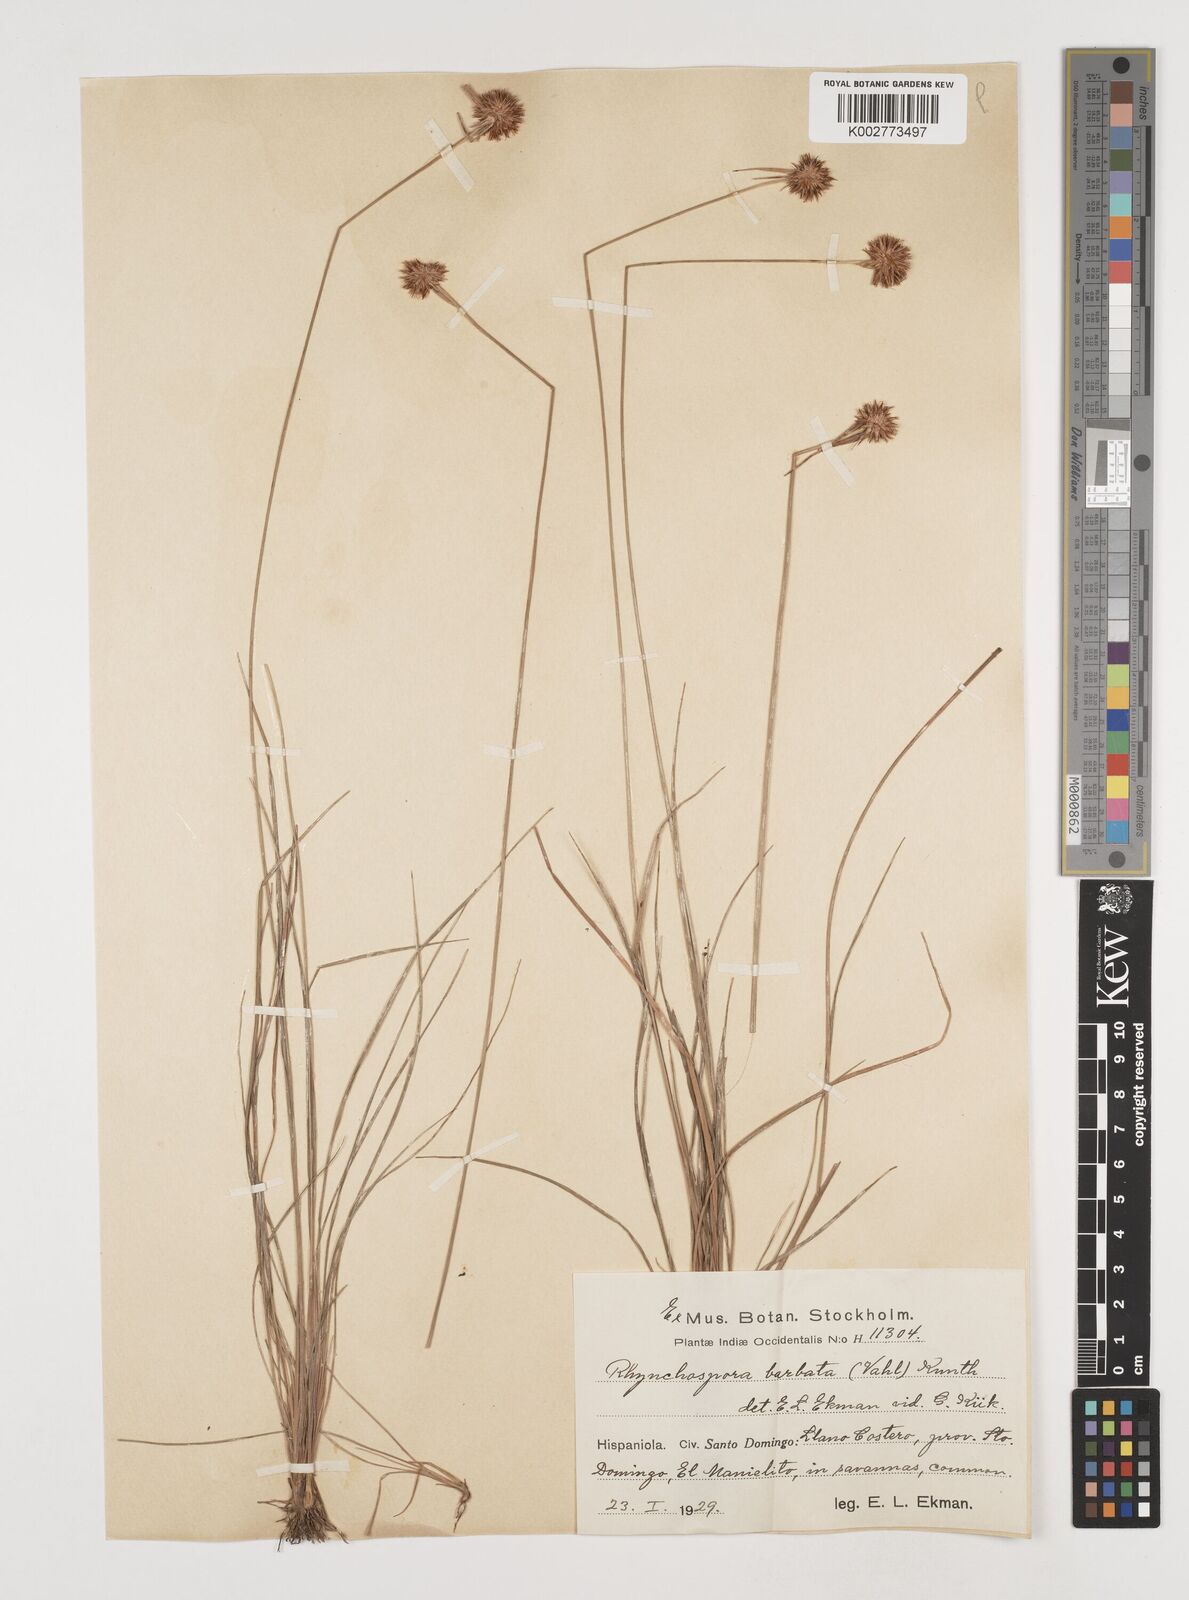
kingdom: Plantae
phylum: Tracheophyta
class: Liliopsida
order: Poales
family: Cyperaceae
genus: Rhynchospora
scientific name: Rhynchospora barbata
